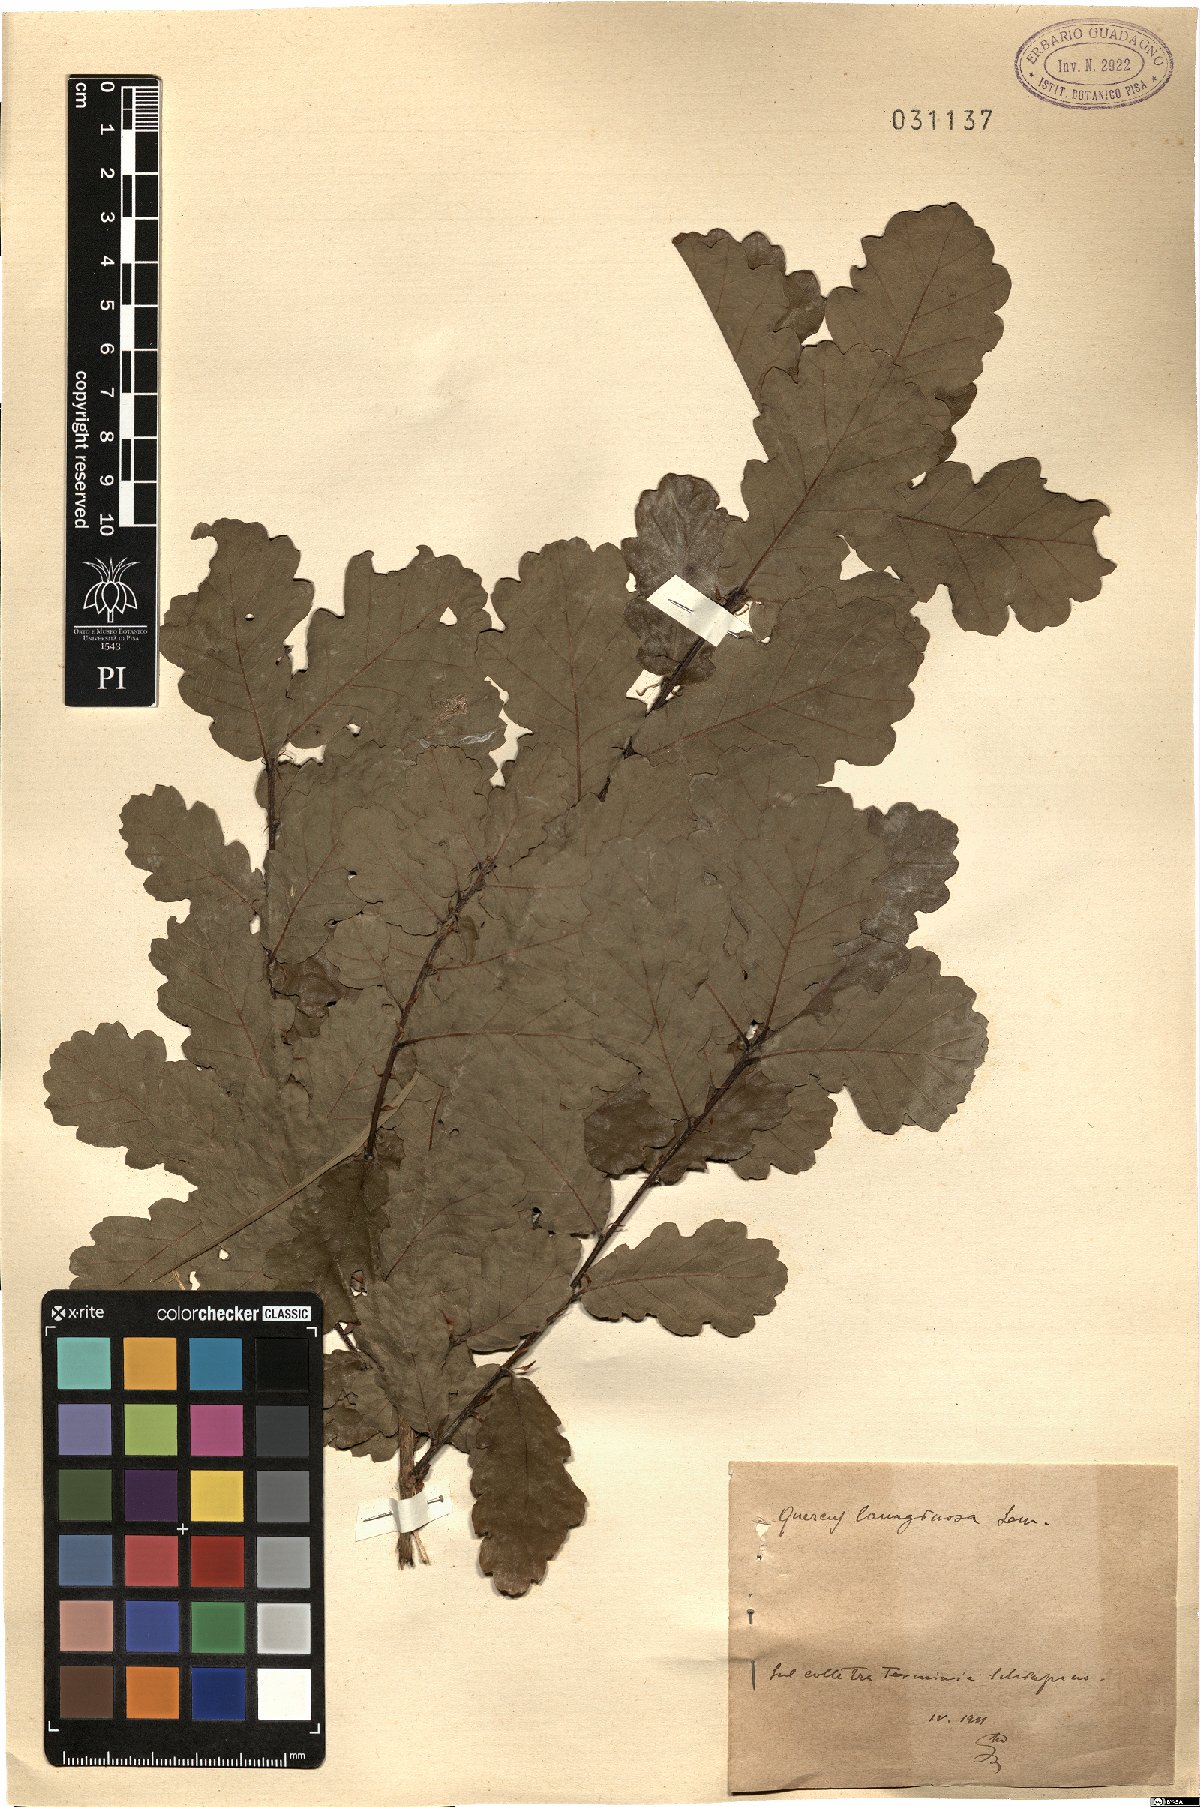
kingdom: Plantae
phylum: Tracheophyta
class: Magnoliopsida
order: Fagales
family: Fagaceae
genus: Quercus
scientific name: Quercus cerris
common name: Turkey oak
